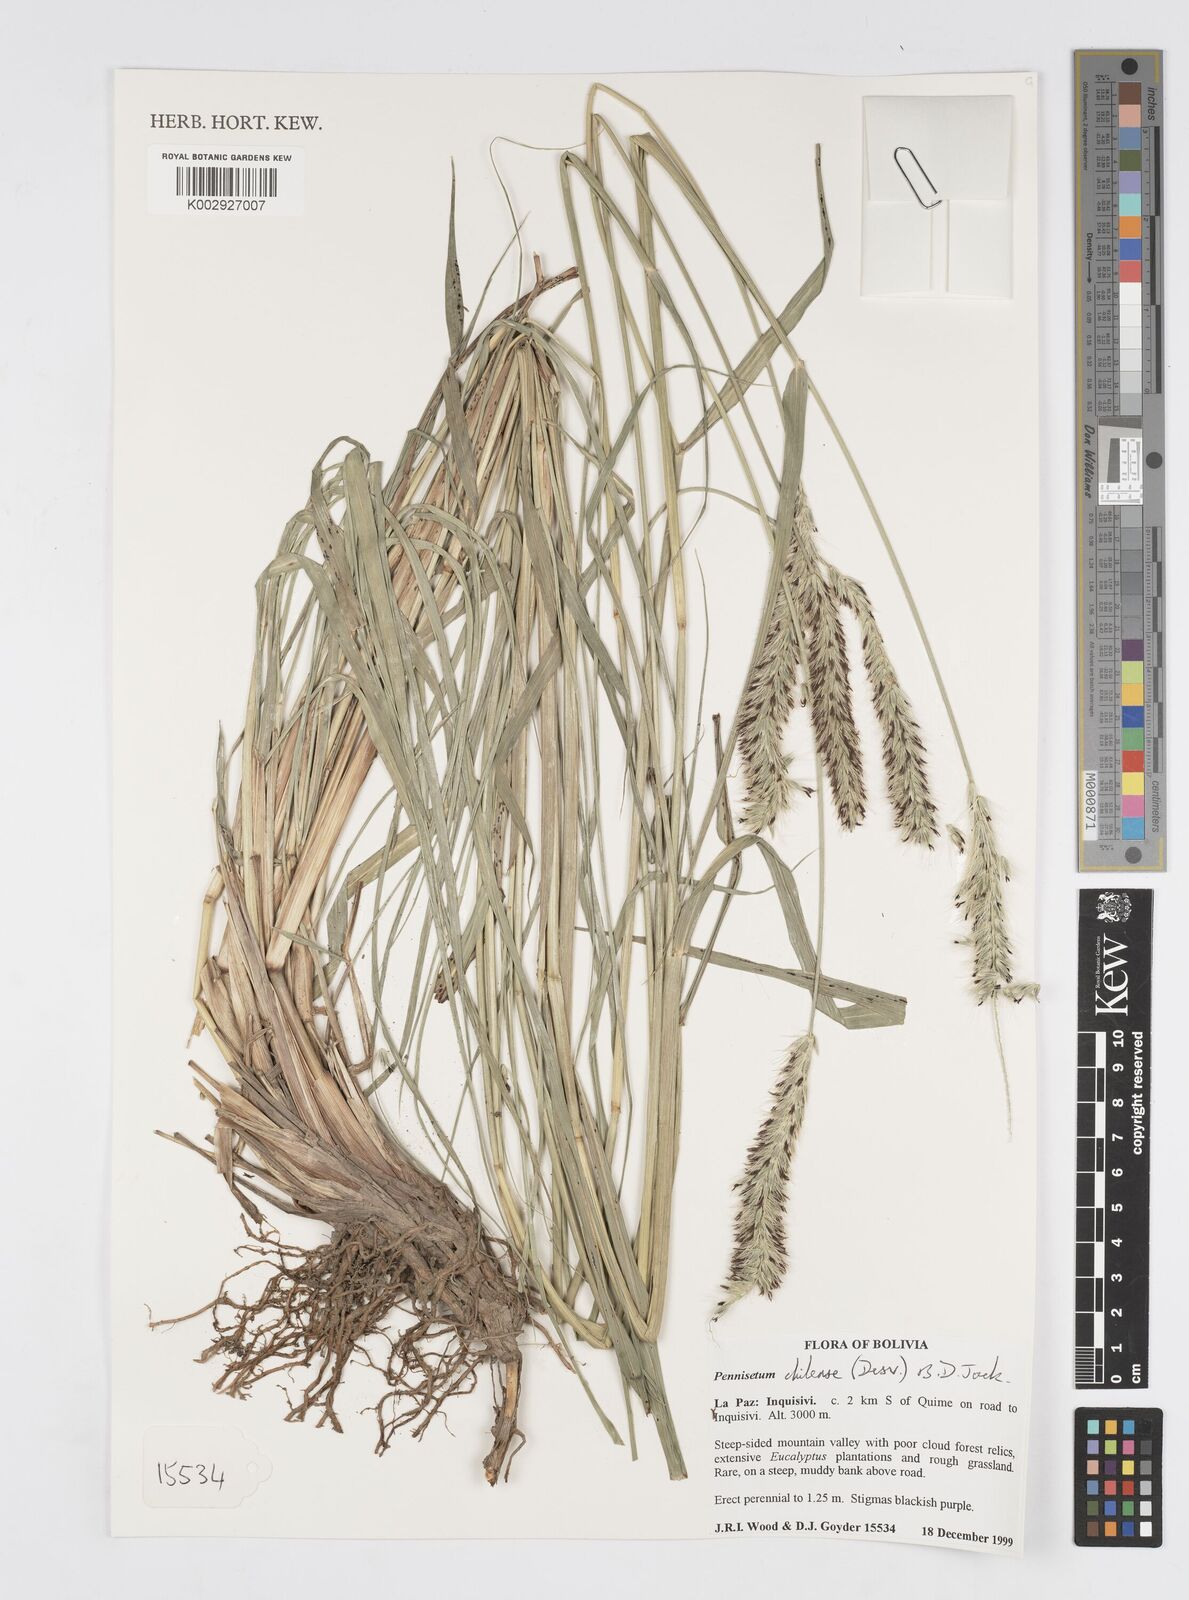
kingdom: Plantae
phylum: Tracheophyta
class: Liliopsida
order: Poales
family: Poaceae
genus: Cenchrus
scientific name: Cenchrus chilensis
